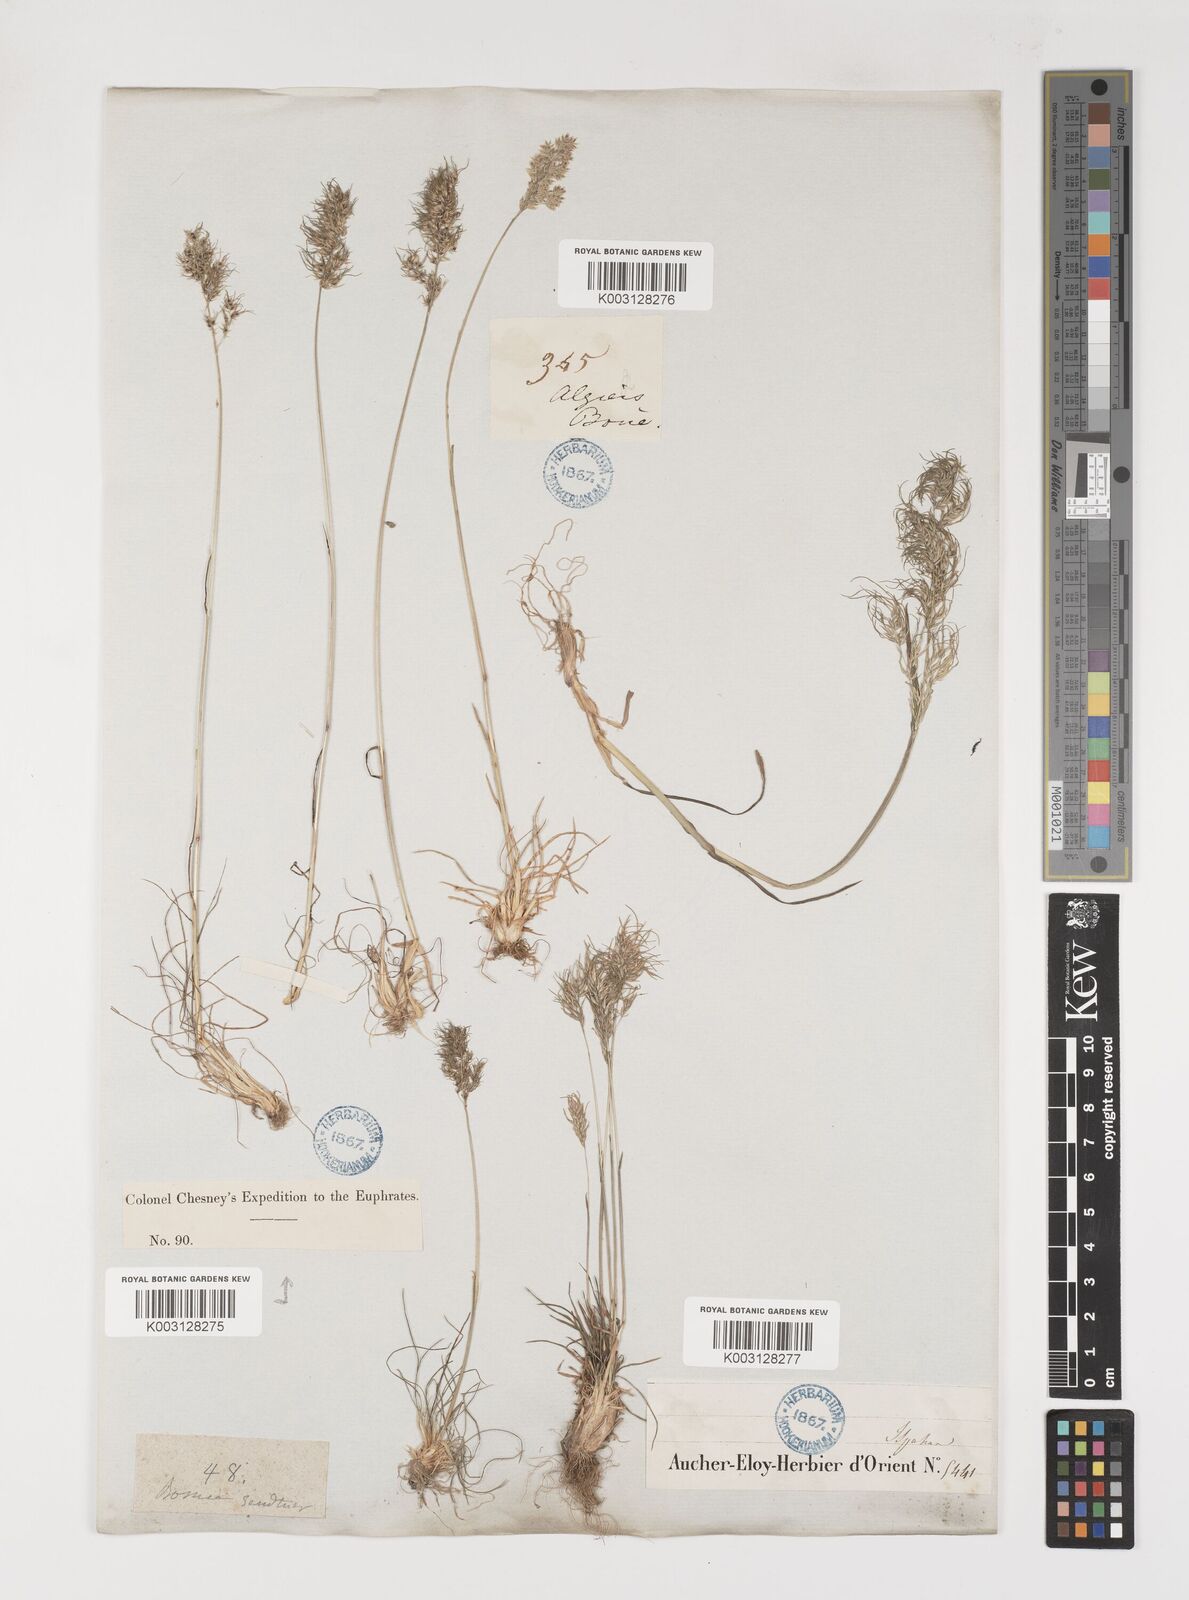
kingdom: Plantae
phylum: Tracheophyta
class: Liliopsida
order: Poales
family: Poaceae
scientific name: Poaceae
